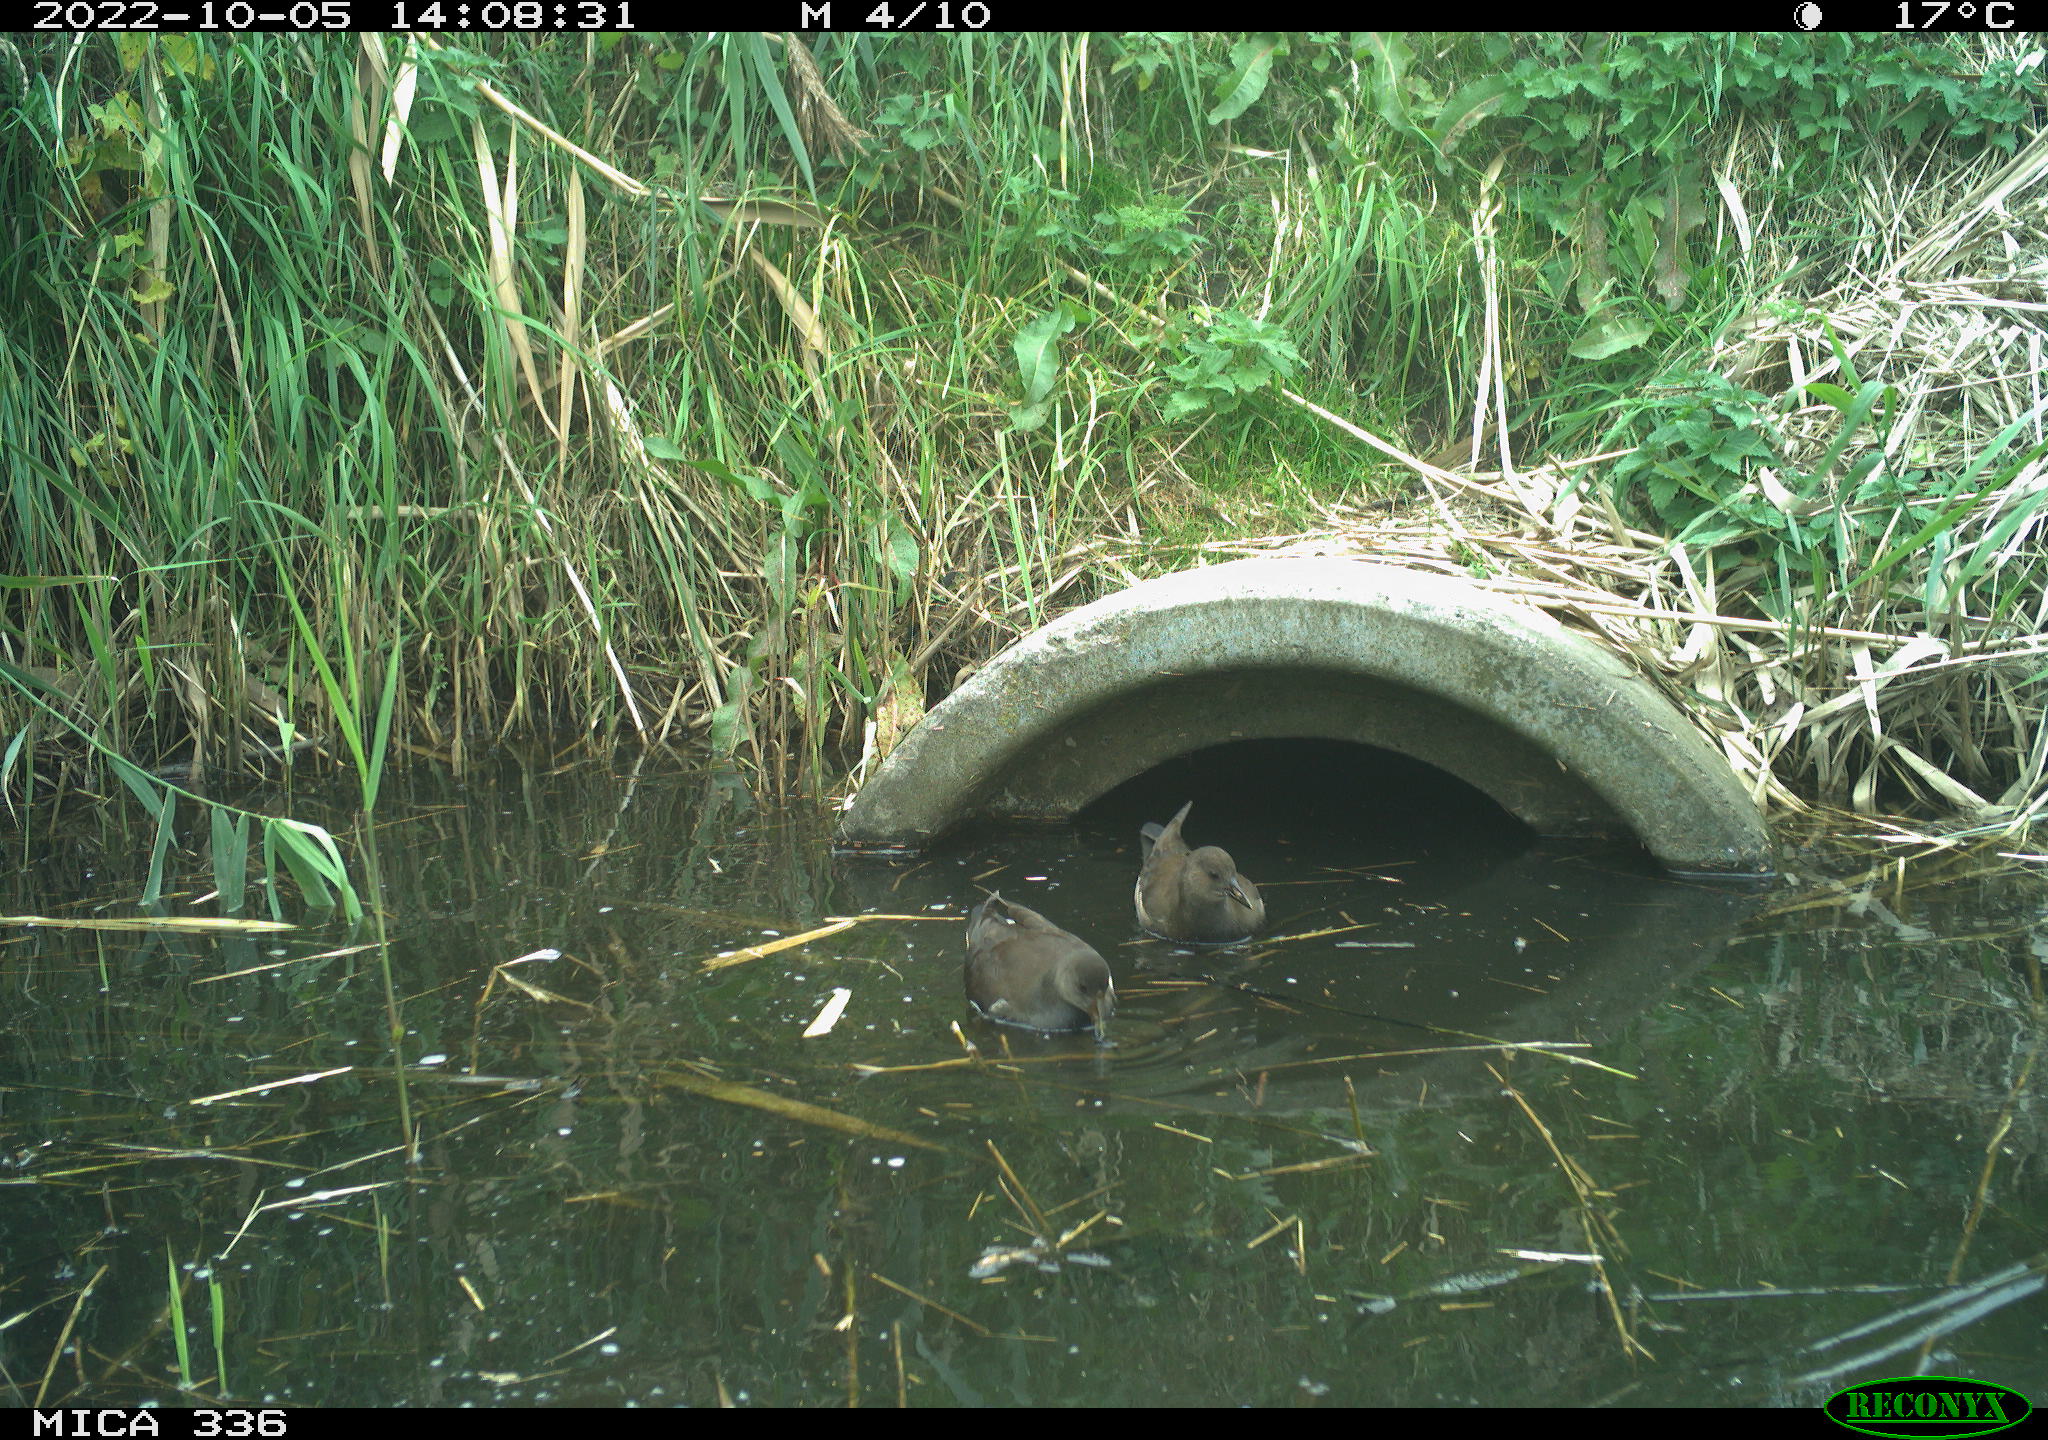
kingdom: Animalia
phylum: Chordata
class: Aves
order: Gruiformes
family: Rallidae
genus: Gallinula
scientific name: Gallinula chloropus
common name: Common moorhen
